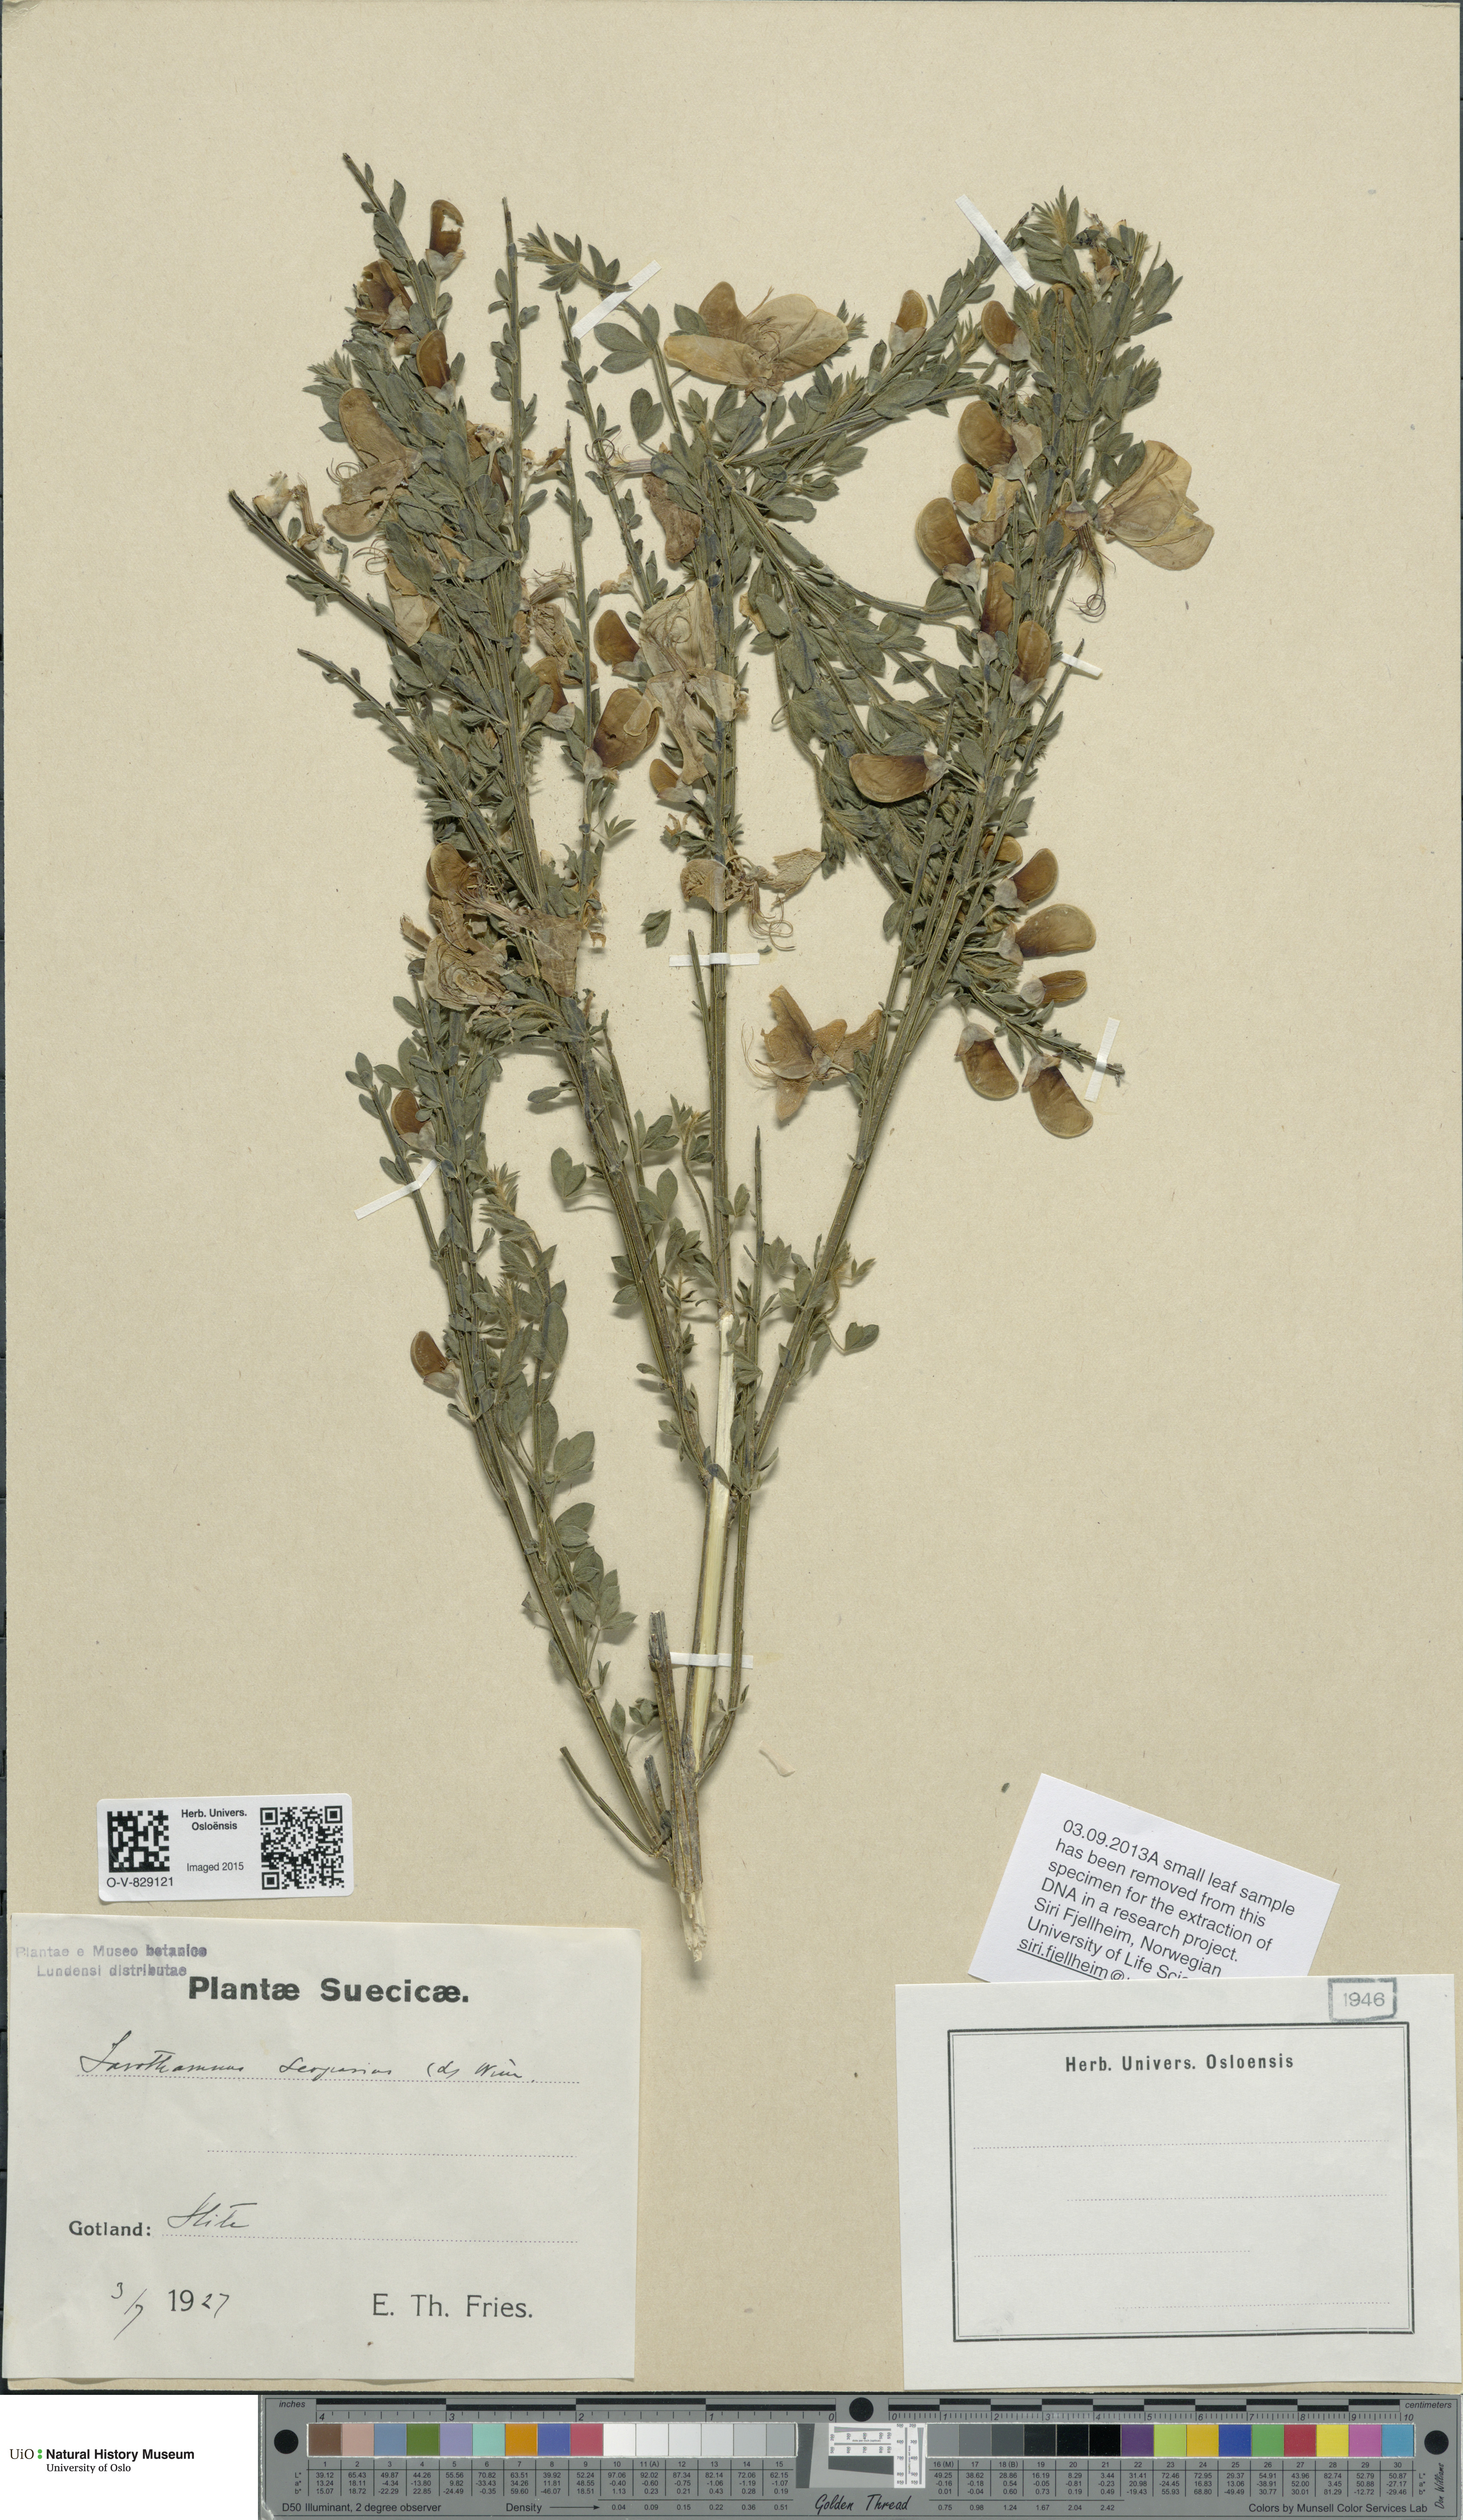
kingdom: Plantae
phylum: Tracheophyta
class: Magnoliopsida
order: Fabales
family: Fabaceae
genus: Cytisus
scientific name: Cytisus scoparius
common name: Scotch broom
